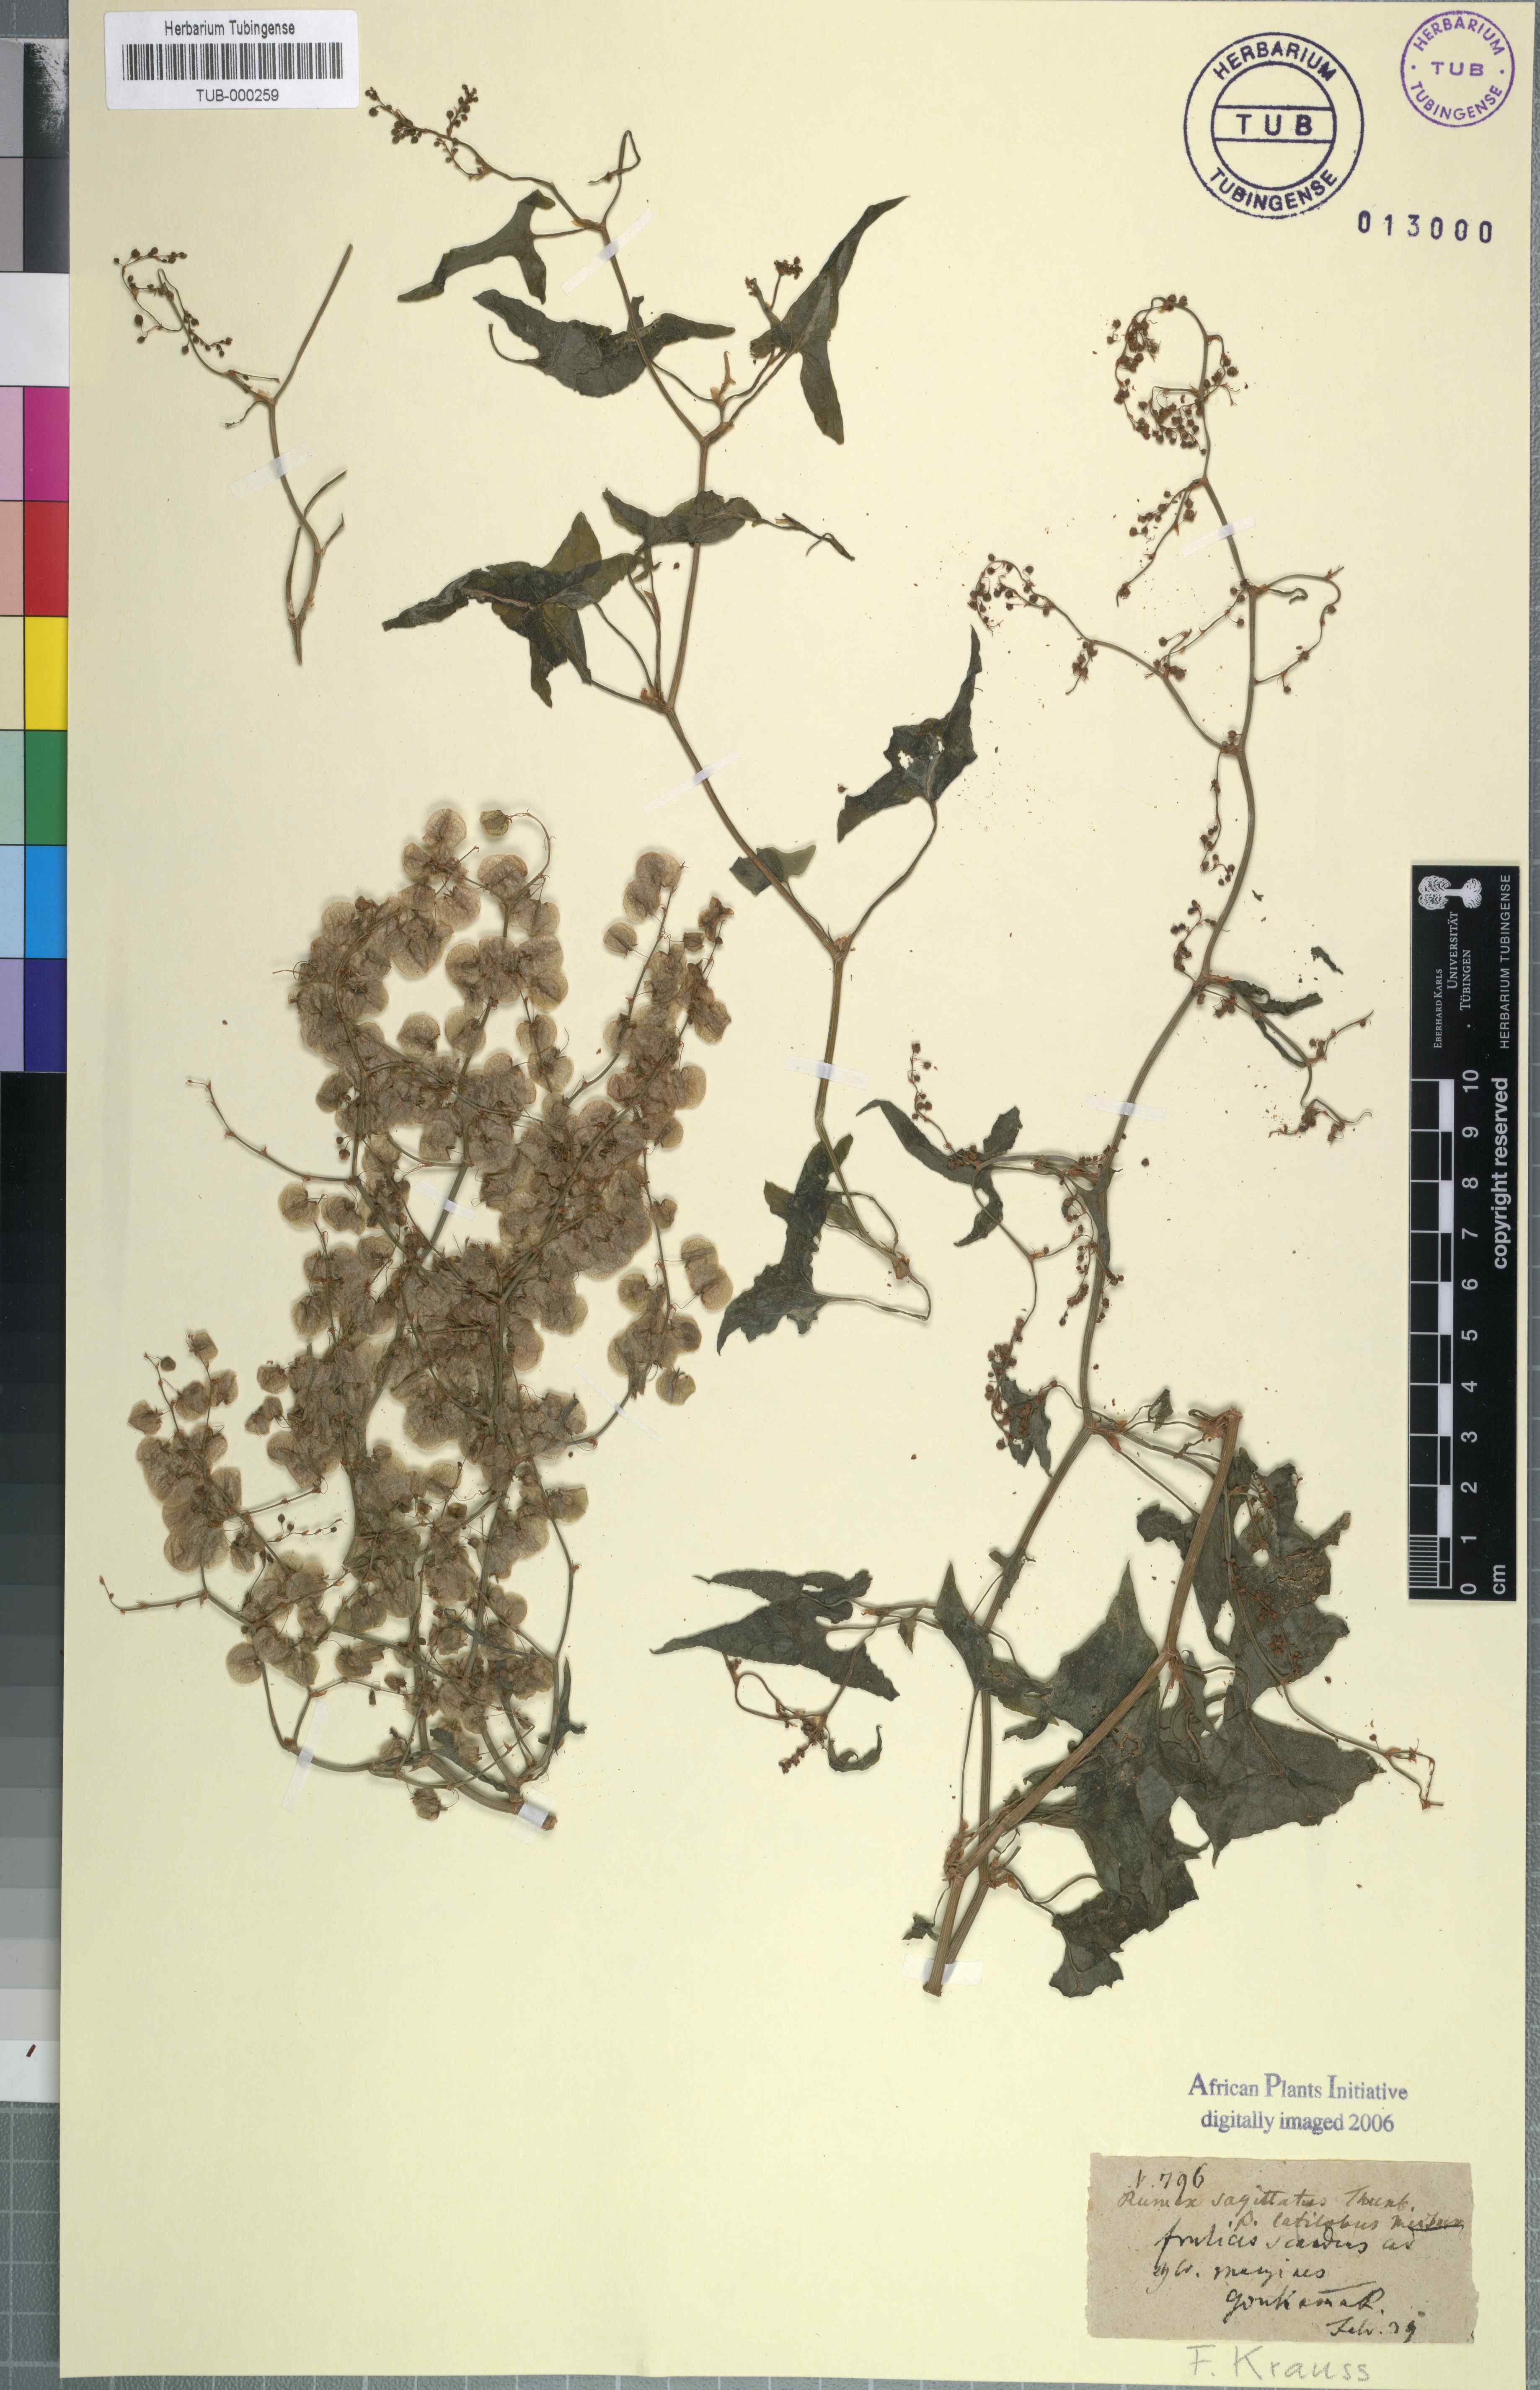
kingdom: Plantae
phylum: Tracheophyta
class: Magnoliopsida
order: Caryophyllales
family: Polygonaceae
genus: Rumex
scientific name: Rumex sagittatus
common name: Climbing dock
